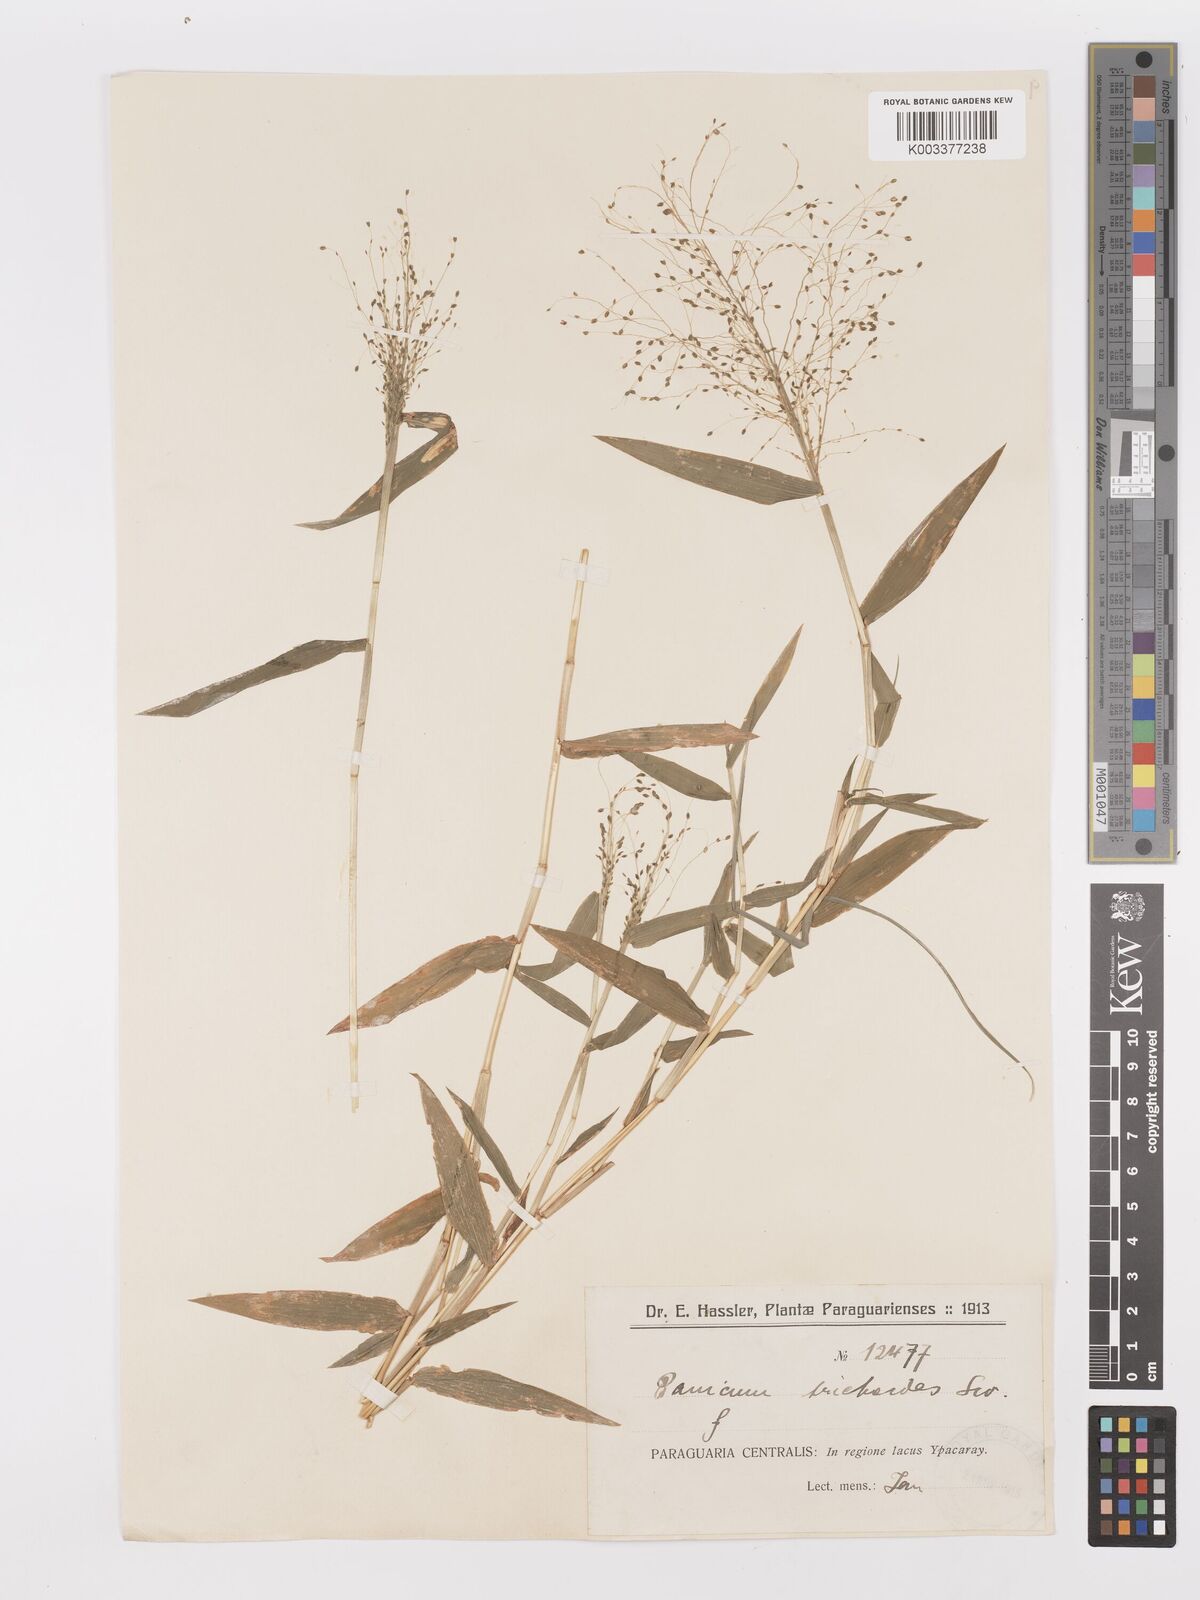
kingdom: Plantae
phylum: Tracheophyta
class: Liliopsida
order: Poales
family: Poaceae
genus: Trichanthecium
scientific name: Trichanthecium schwackeanum
